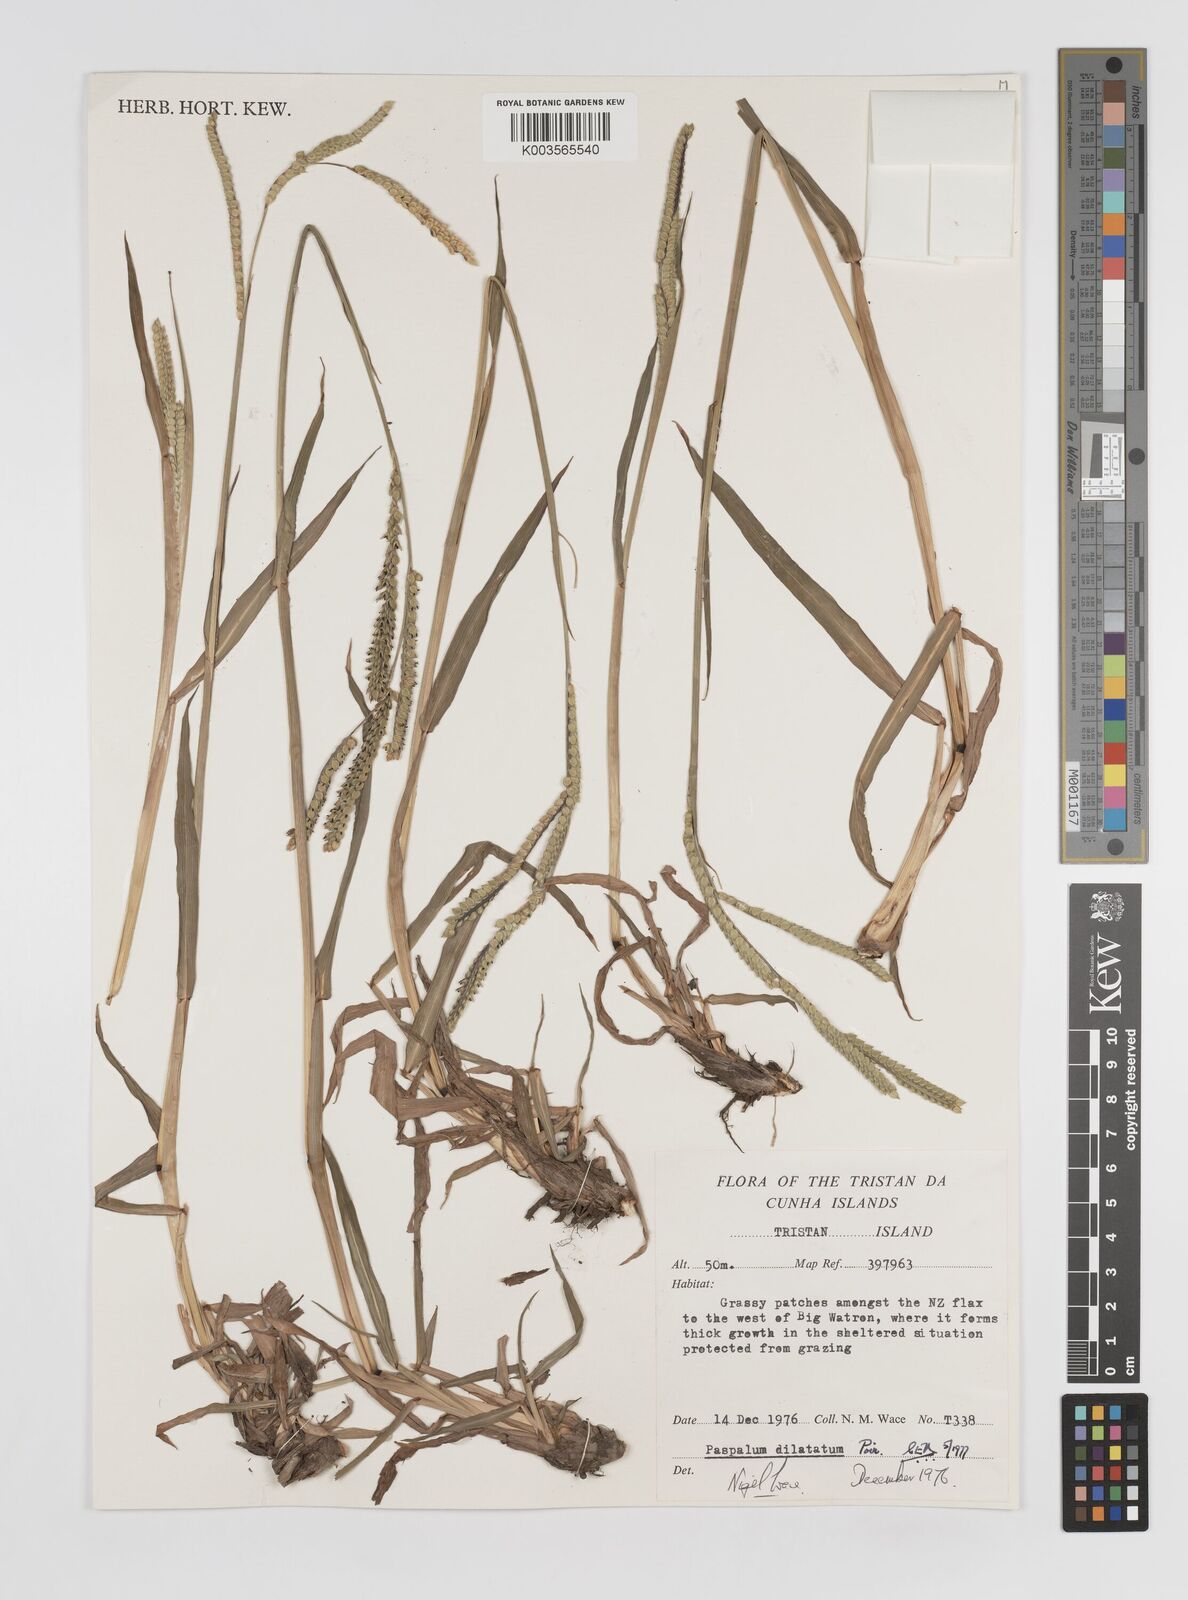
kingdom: Plantae
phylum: Tracheophyta
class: Liliopsida
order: Poales
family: Poaceae
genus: Paspalum
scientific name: Paspalum dilatatum
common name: Dallisgrass
